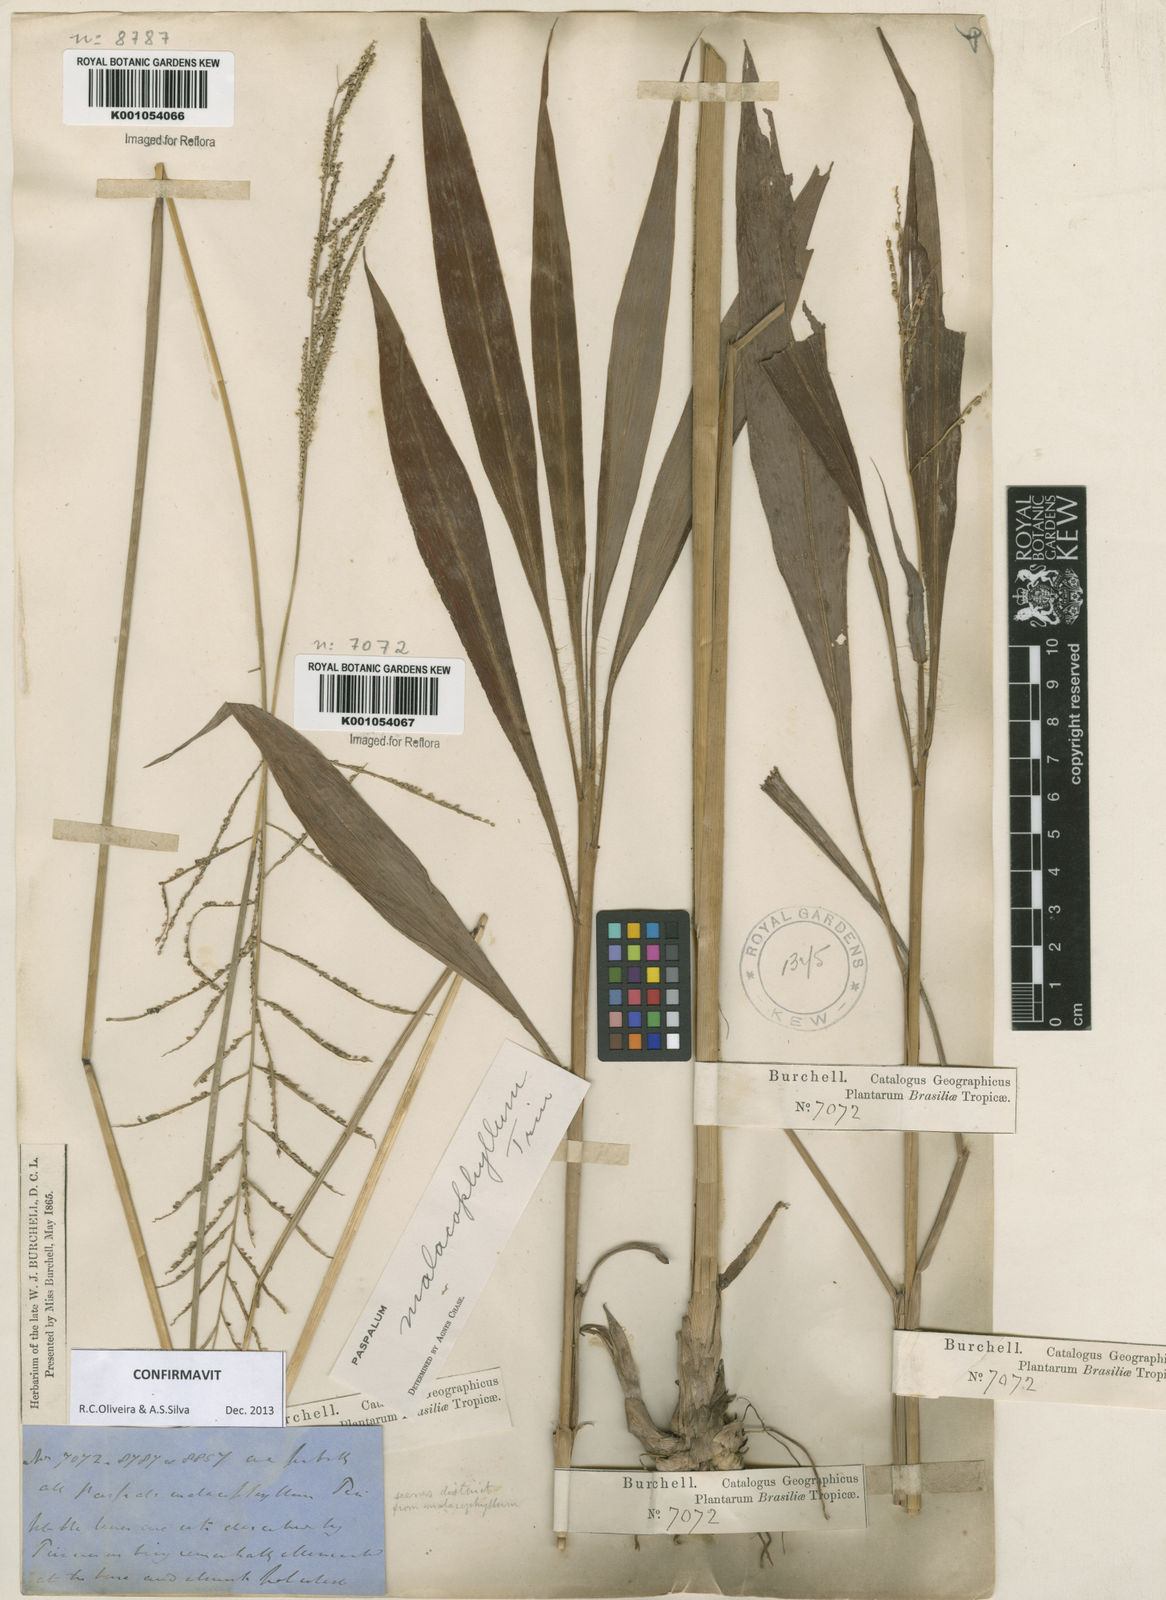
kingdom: Plantae
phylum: Tracheophyta
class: Liliopsida
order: Poales
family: Poaceae
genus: Paspalum
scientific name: Paspalum malacophyllum
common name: Ribbed paspalum
